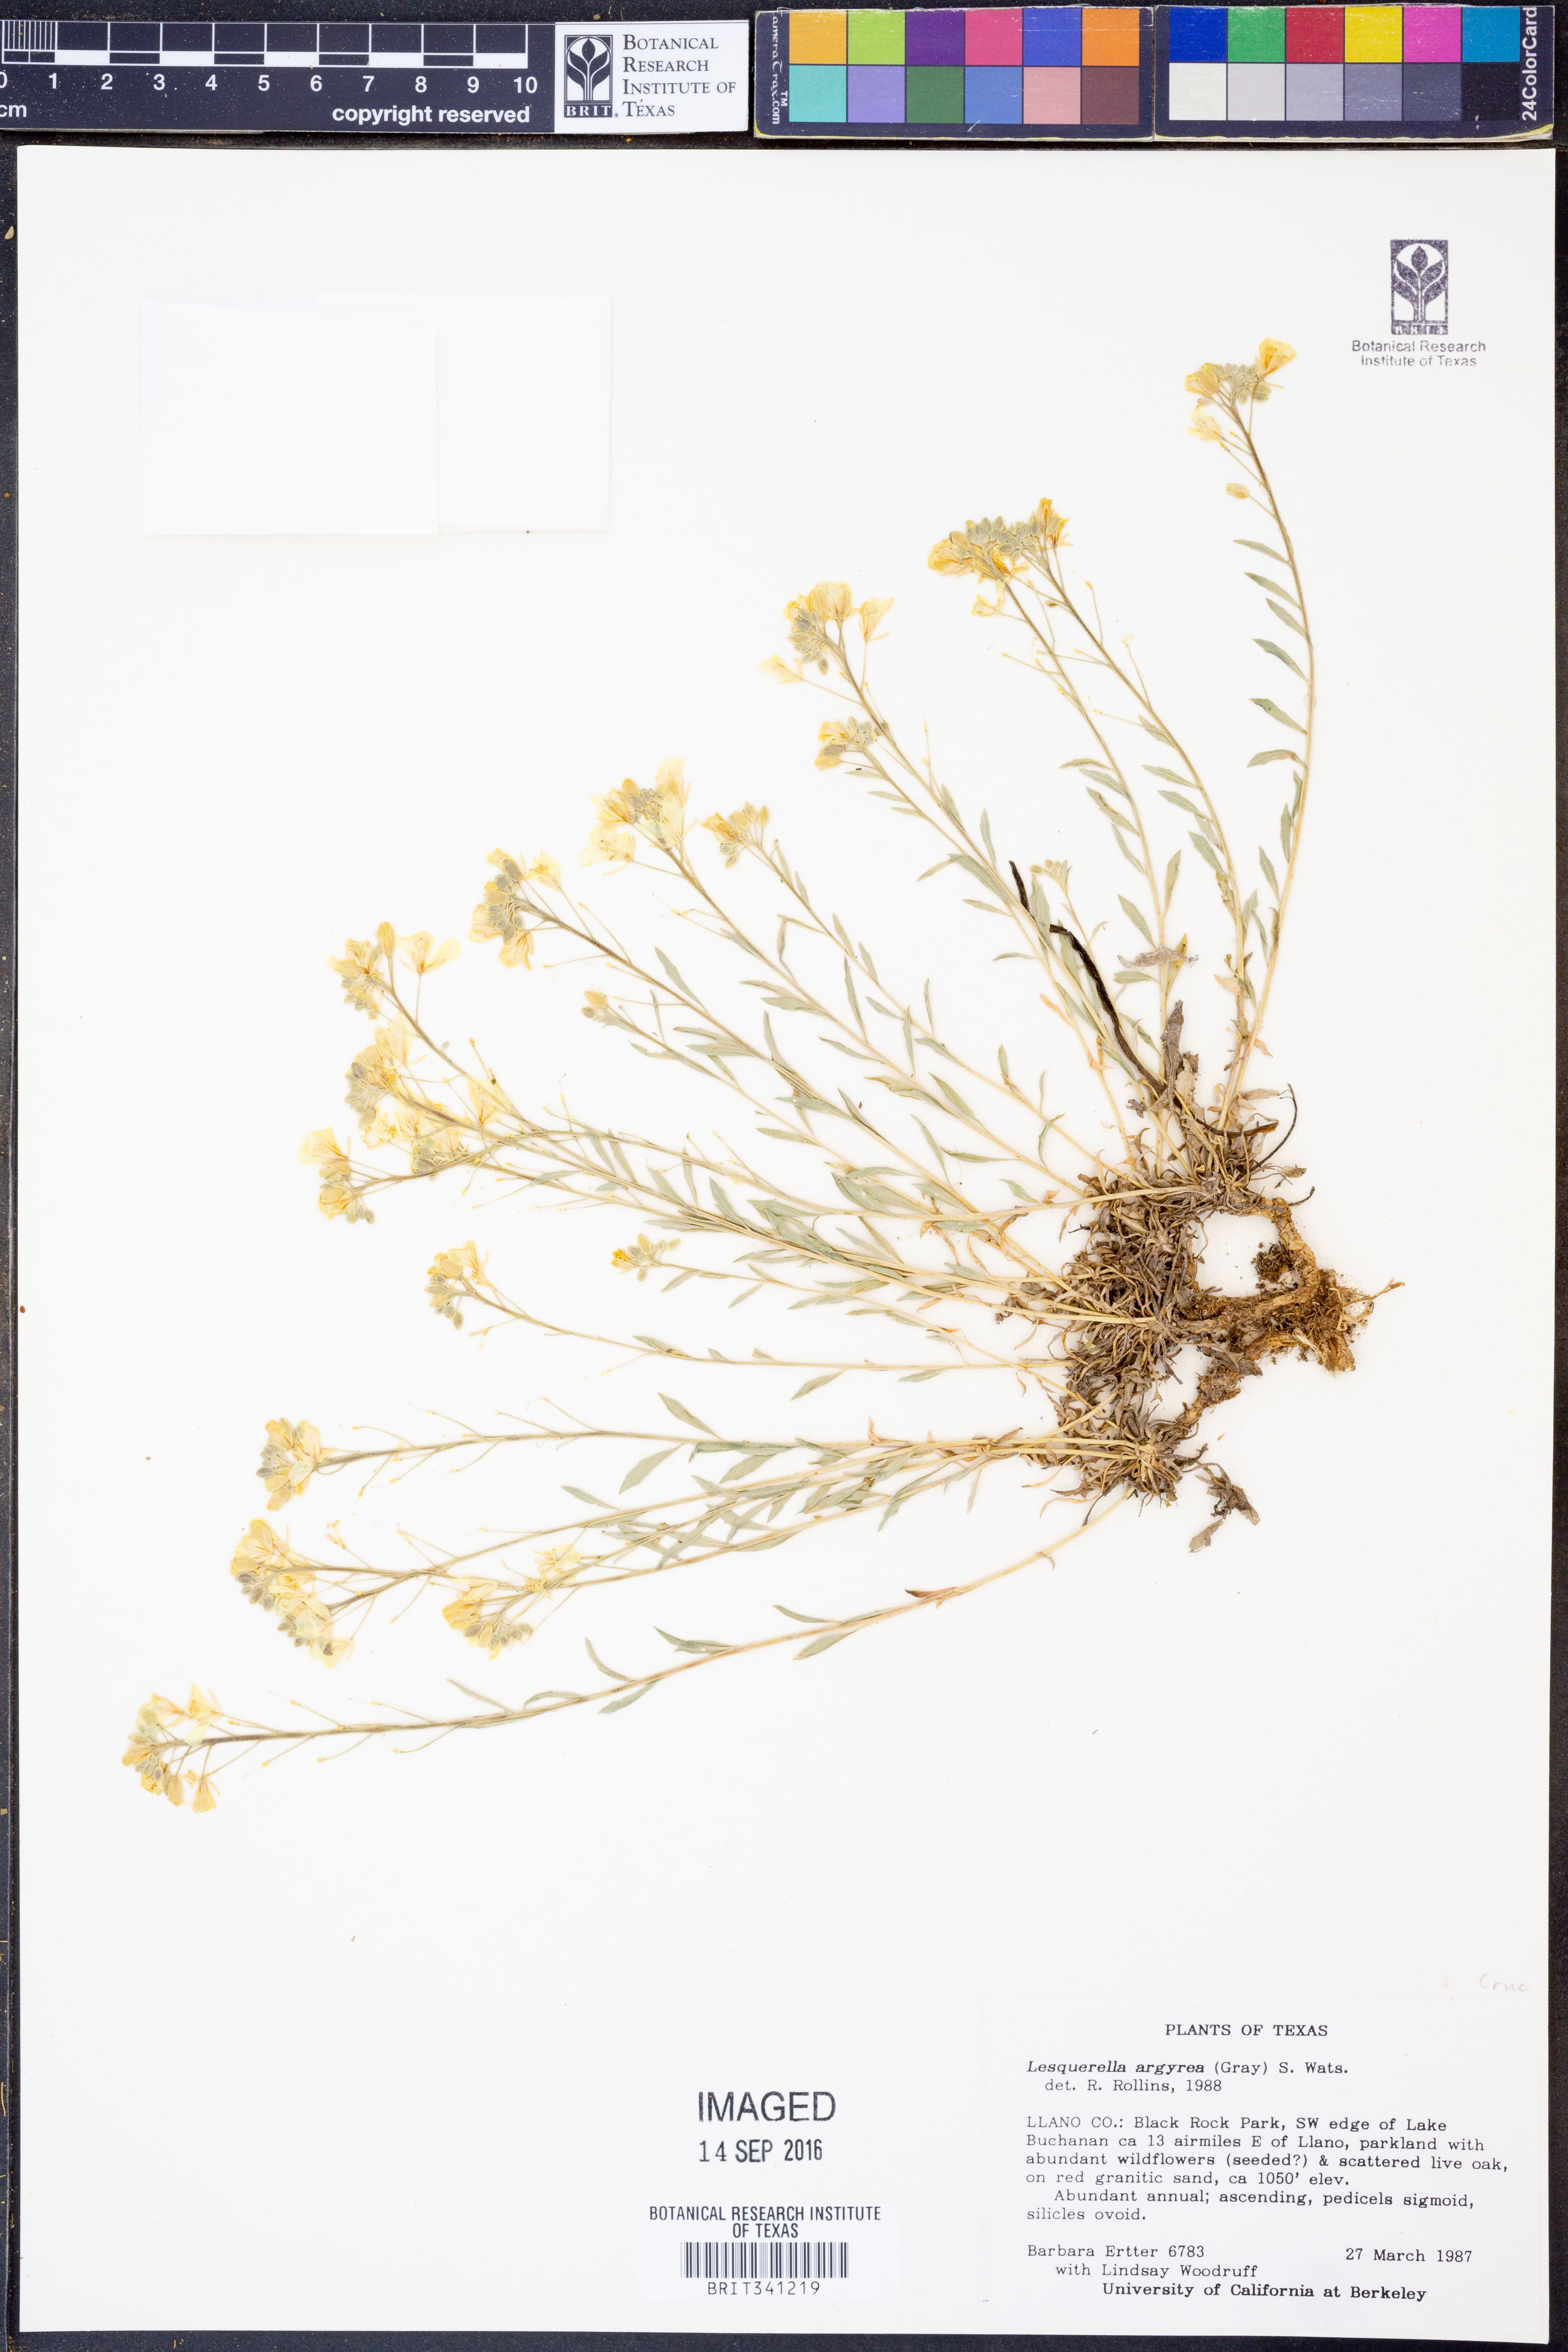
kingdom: Plantae
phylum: Tracheophyta
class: Magnoliopsida
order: Brassicales
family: Brassicaceae
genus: Physaria
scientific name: Physaria argyraea
